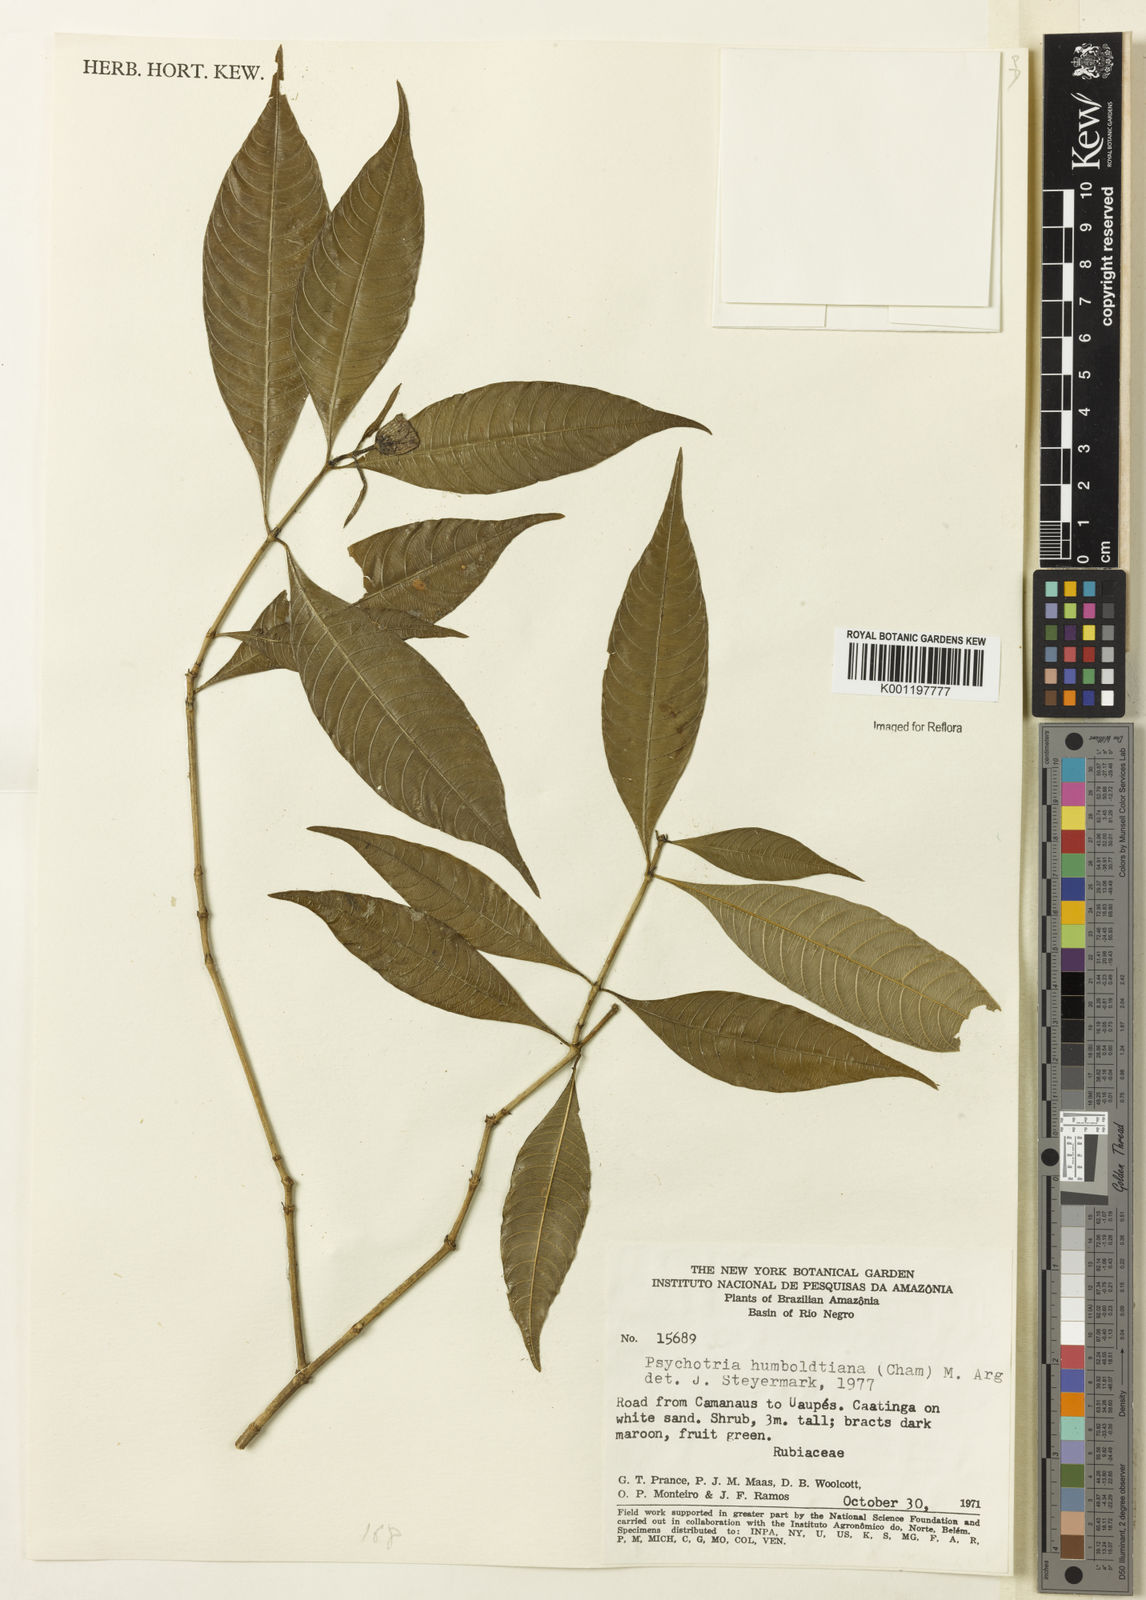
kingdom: Plantae
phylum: Tracheophyta
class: Magnoliopsida
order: Gentianales
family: Rubiaceae
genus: Psychotria
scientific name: Psychotria
